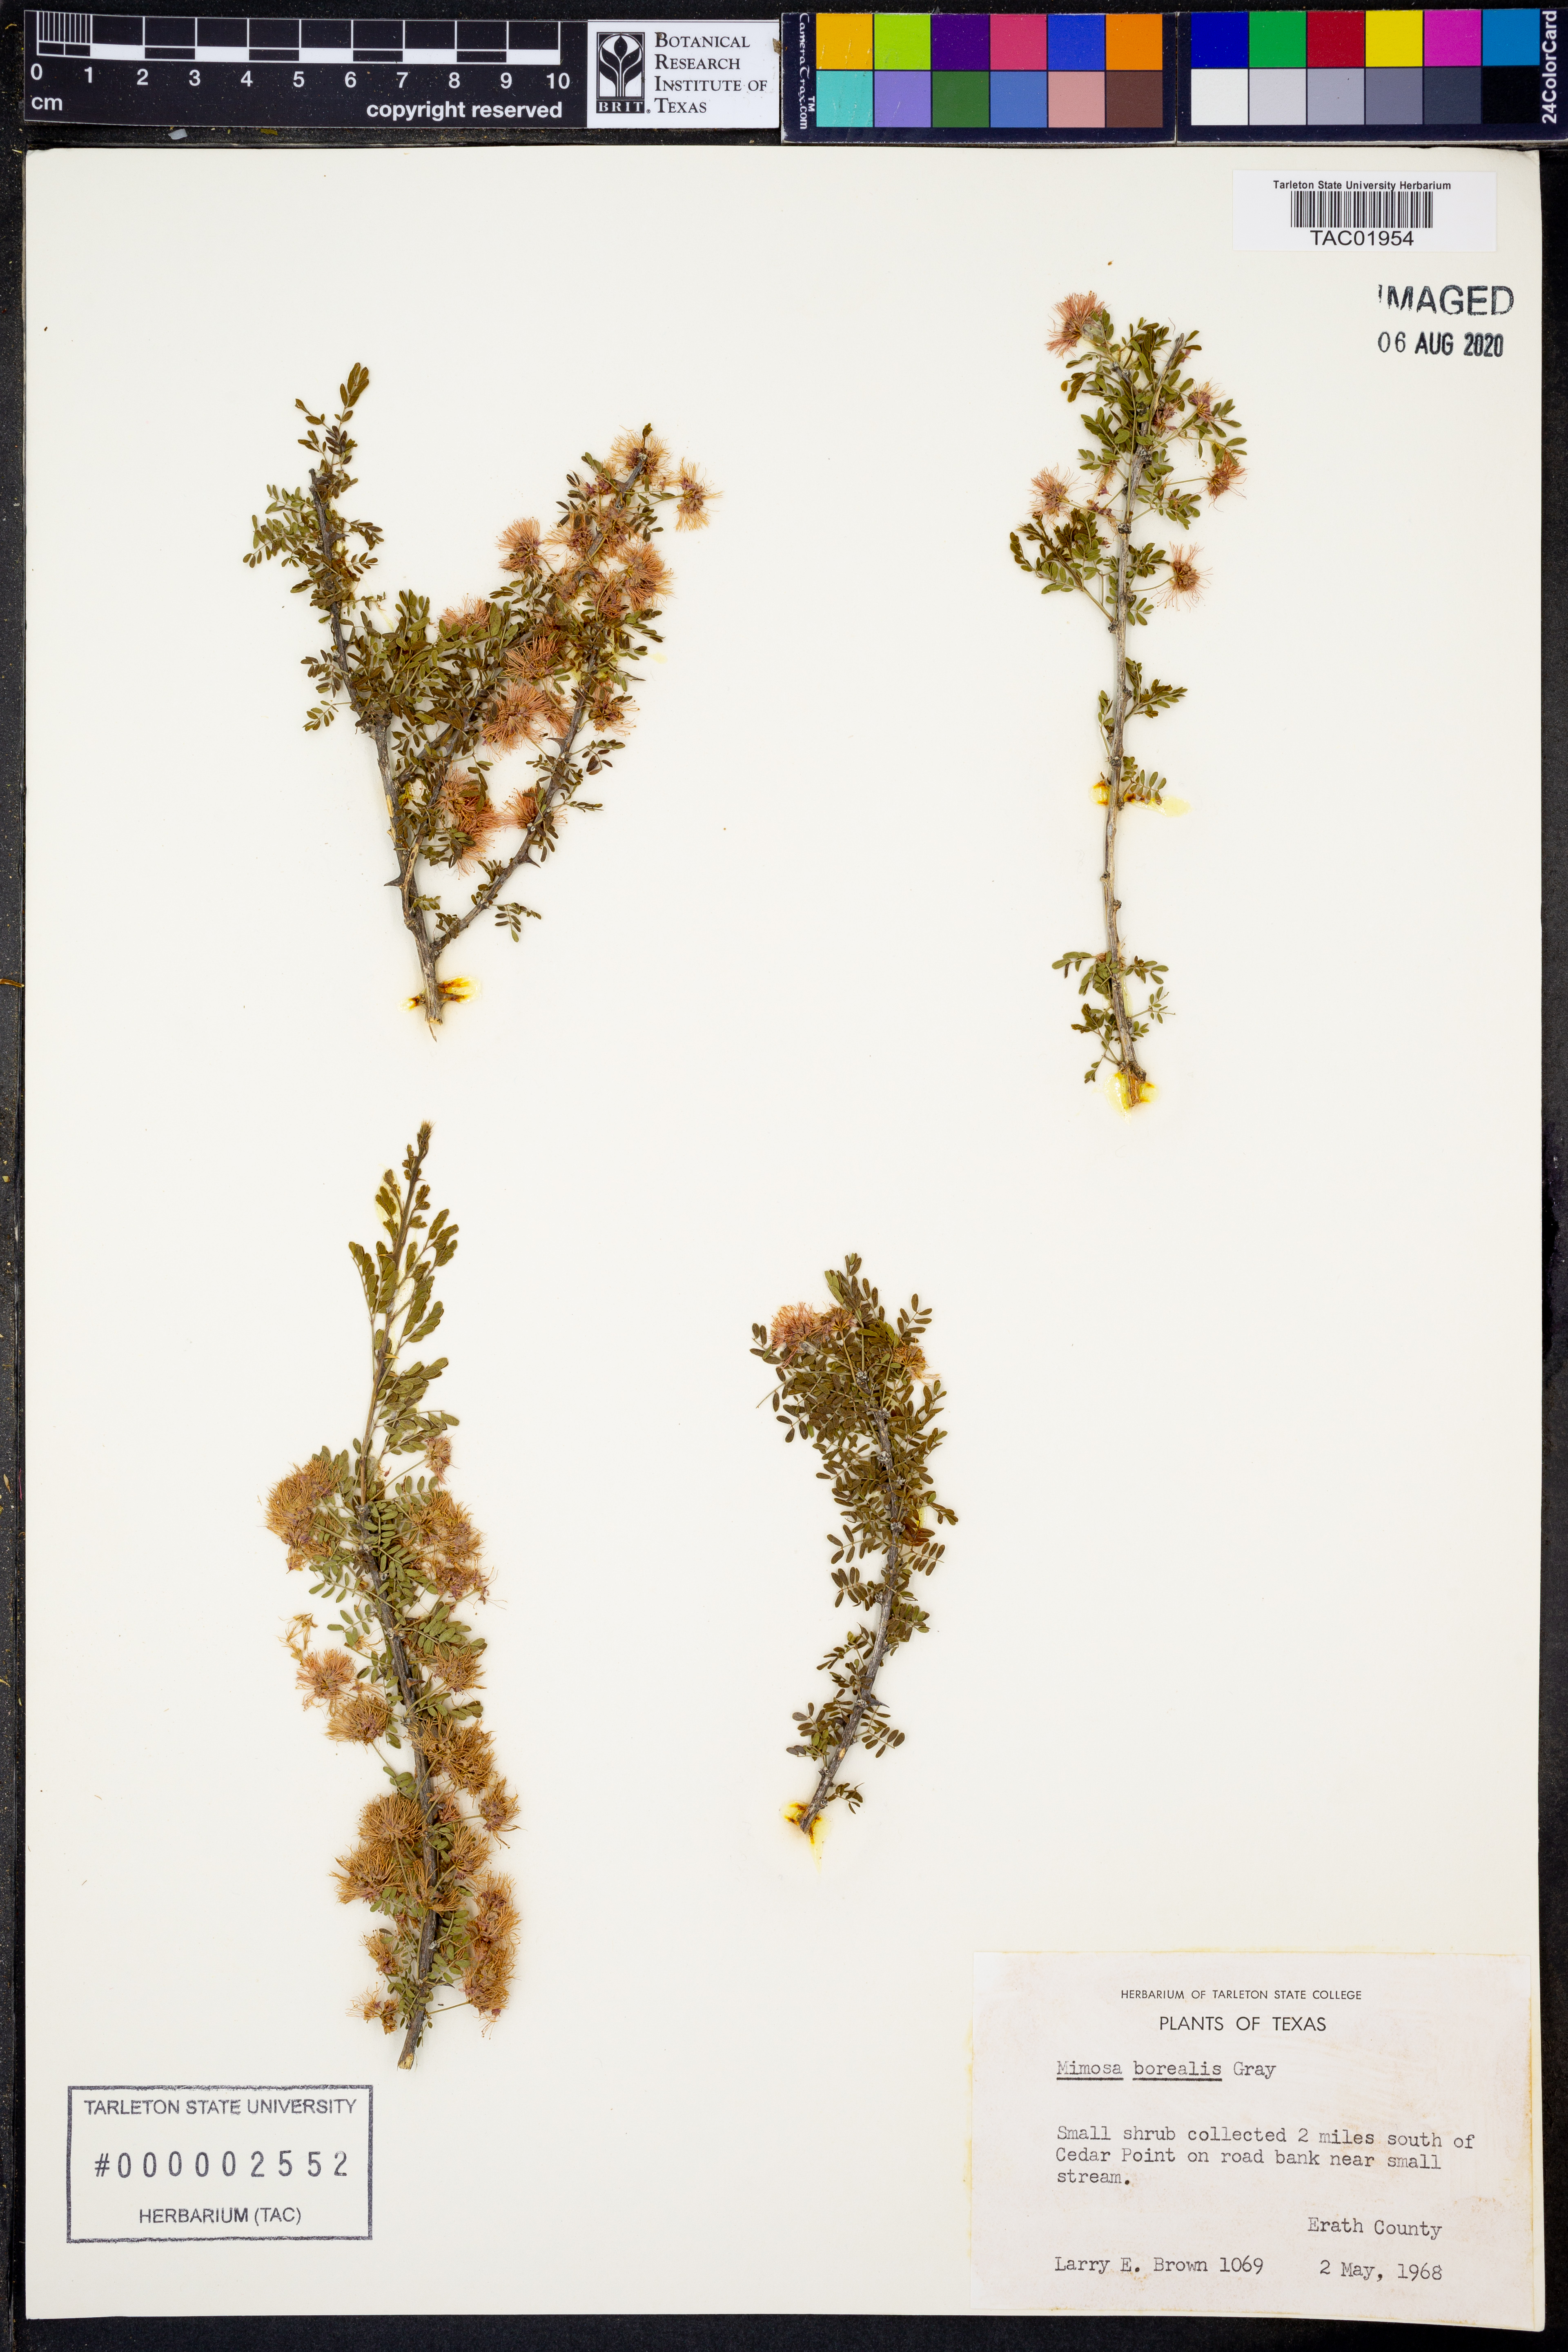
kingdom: Plantae
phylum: Tracheophyta
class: Magnoliopsida
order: Fabales
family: Fabaceae
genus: Mimosa
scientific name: Mimosa borealis
